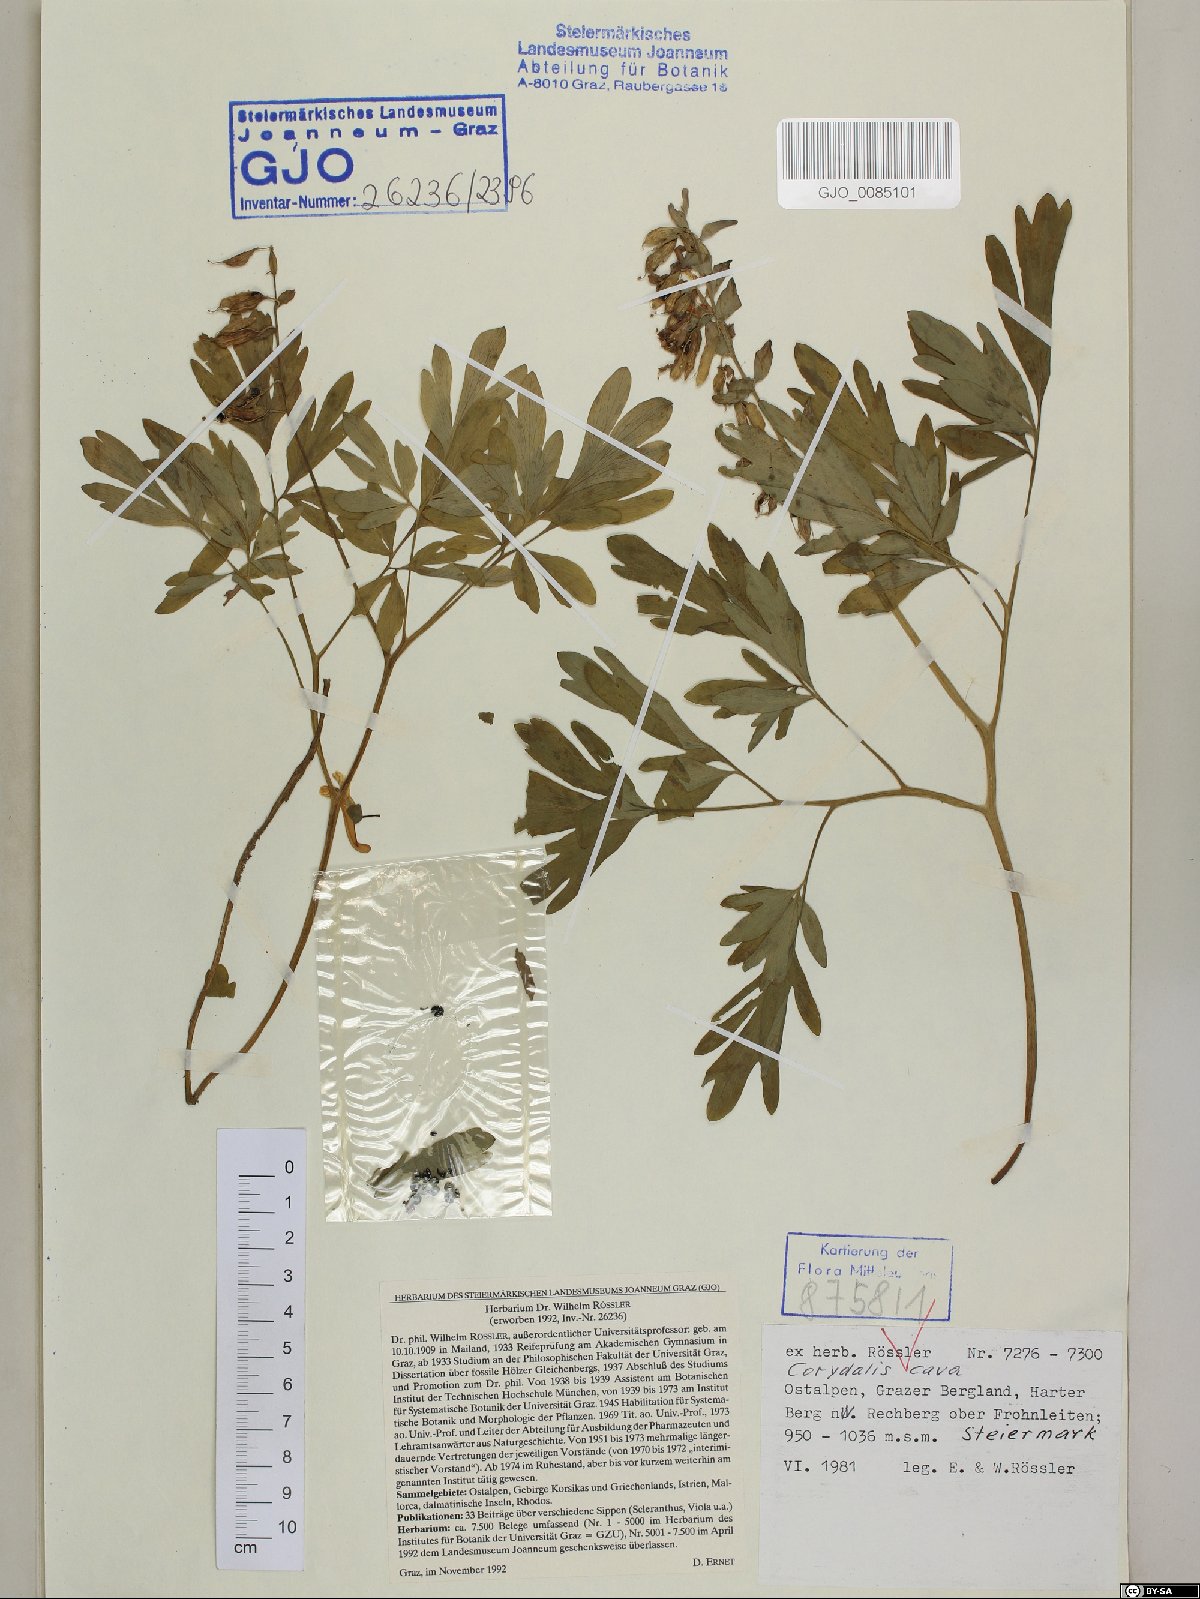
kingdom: Plantae
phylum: Tracheophyta
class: Magnoliopsida
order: Ranunculales
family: Papaveraceae
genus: Corydalis
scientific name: Corydalis cava
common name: Hollowroot
